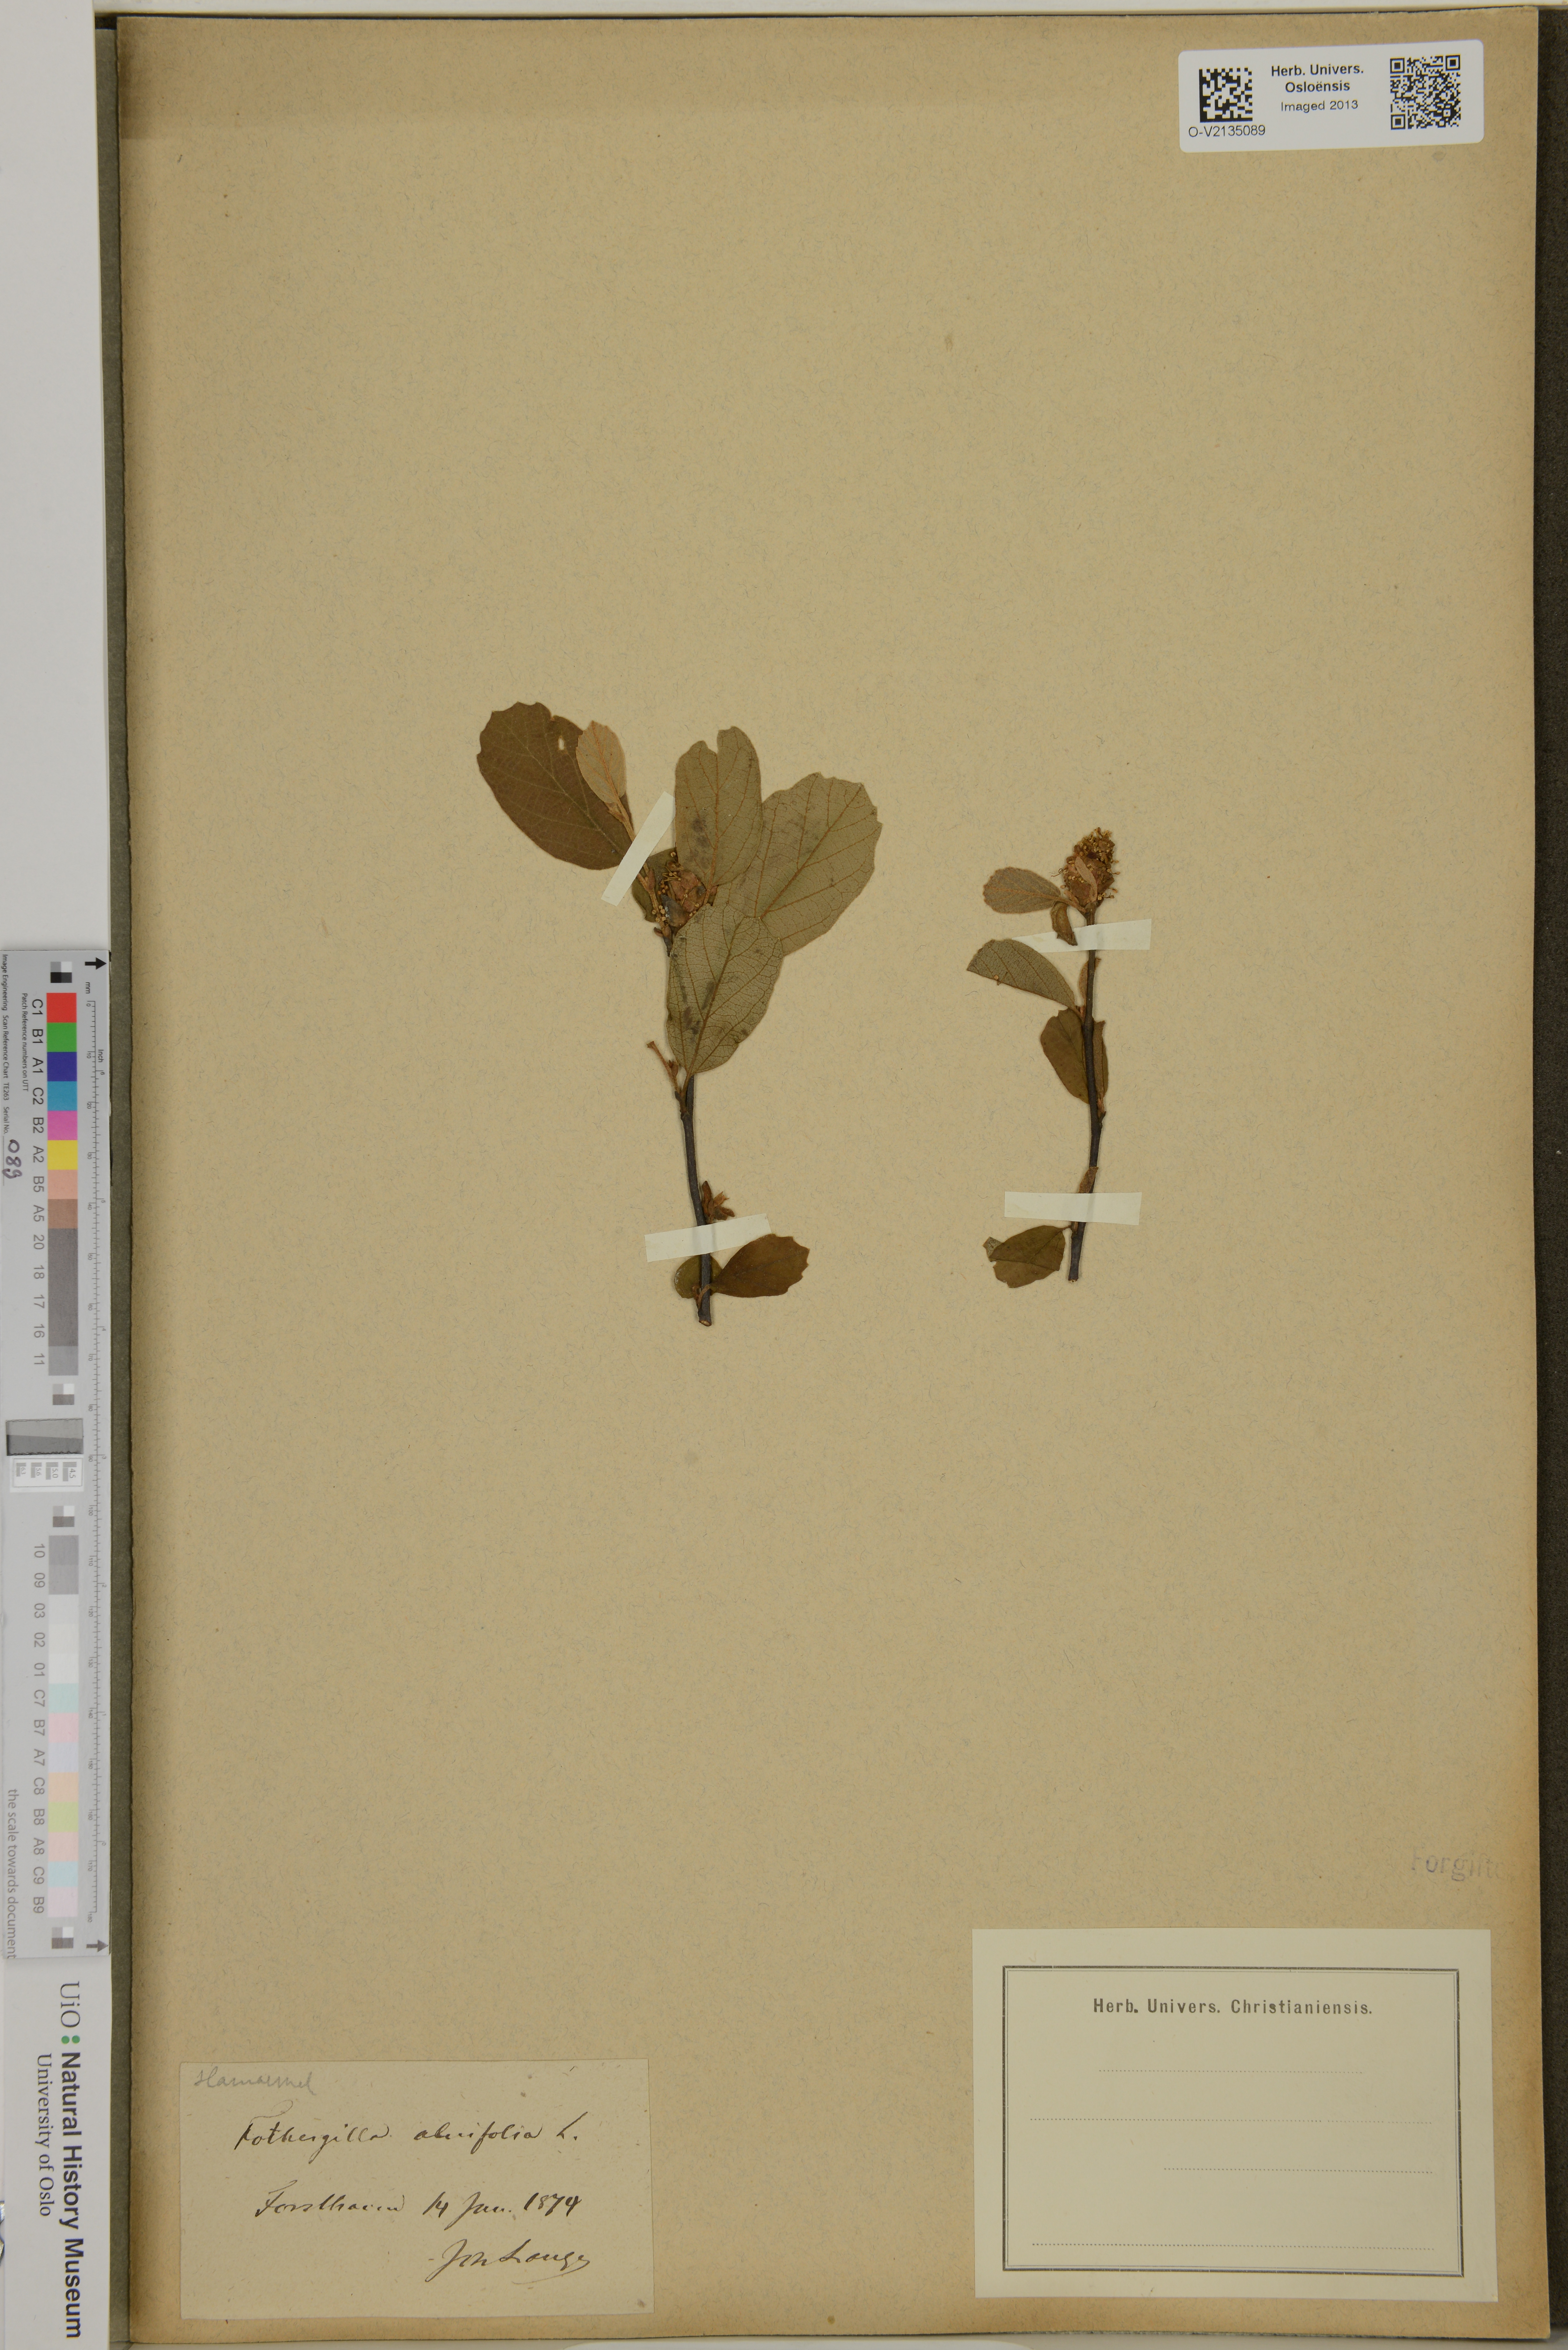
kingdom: Plantae
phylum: Tracheophyta
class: Magnoliopsida
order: Saxifragales
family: Hamamelidaceae
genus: Fothergilla
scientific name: Fothergilla gardenii
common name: Dwarf witch-alder
